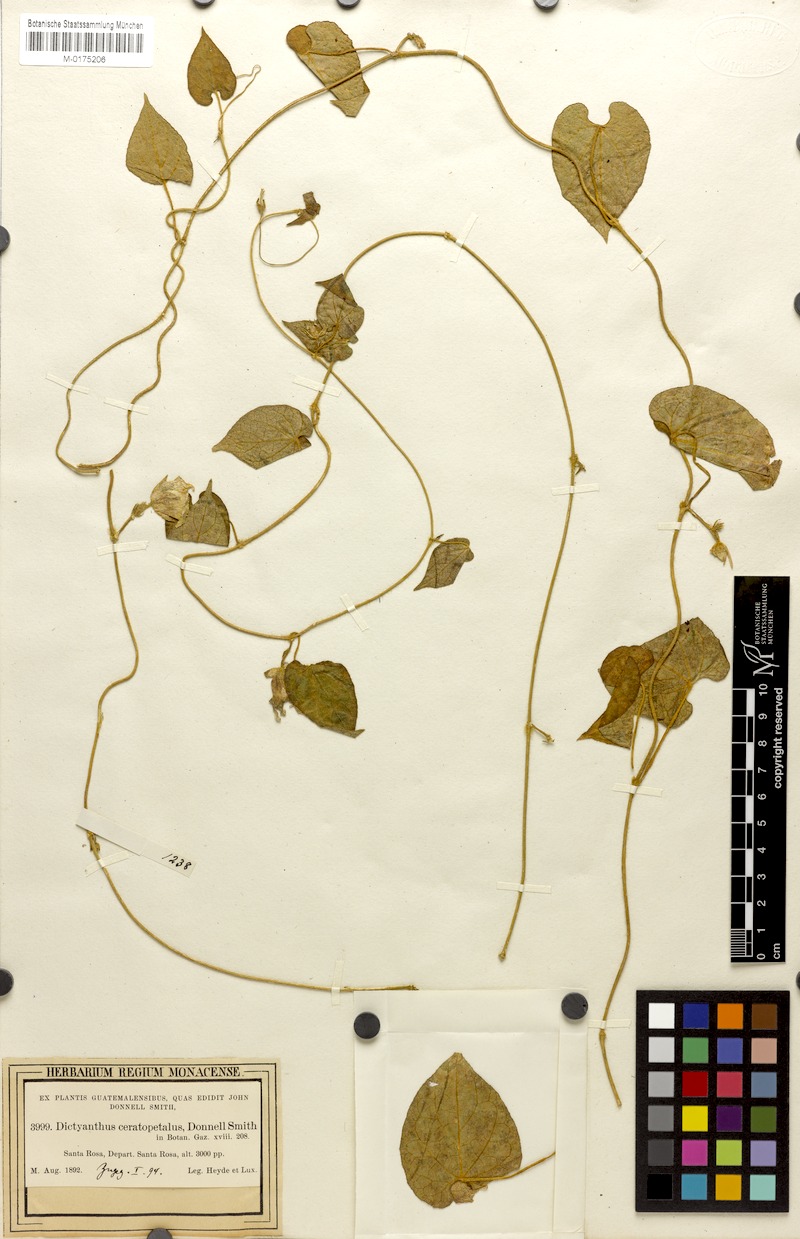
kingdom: Plantae
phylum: Tracheophyta
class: Magnoliopsida
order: Gentianales
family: Apocynaceae
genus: Dictyanthus
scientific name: Dictyanthus ceratopetalus
